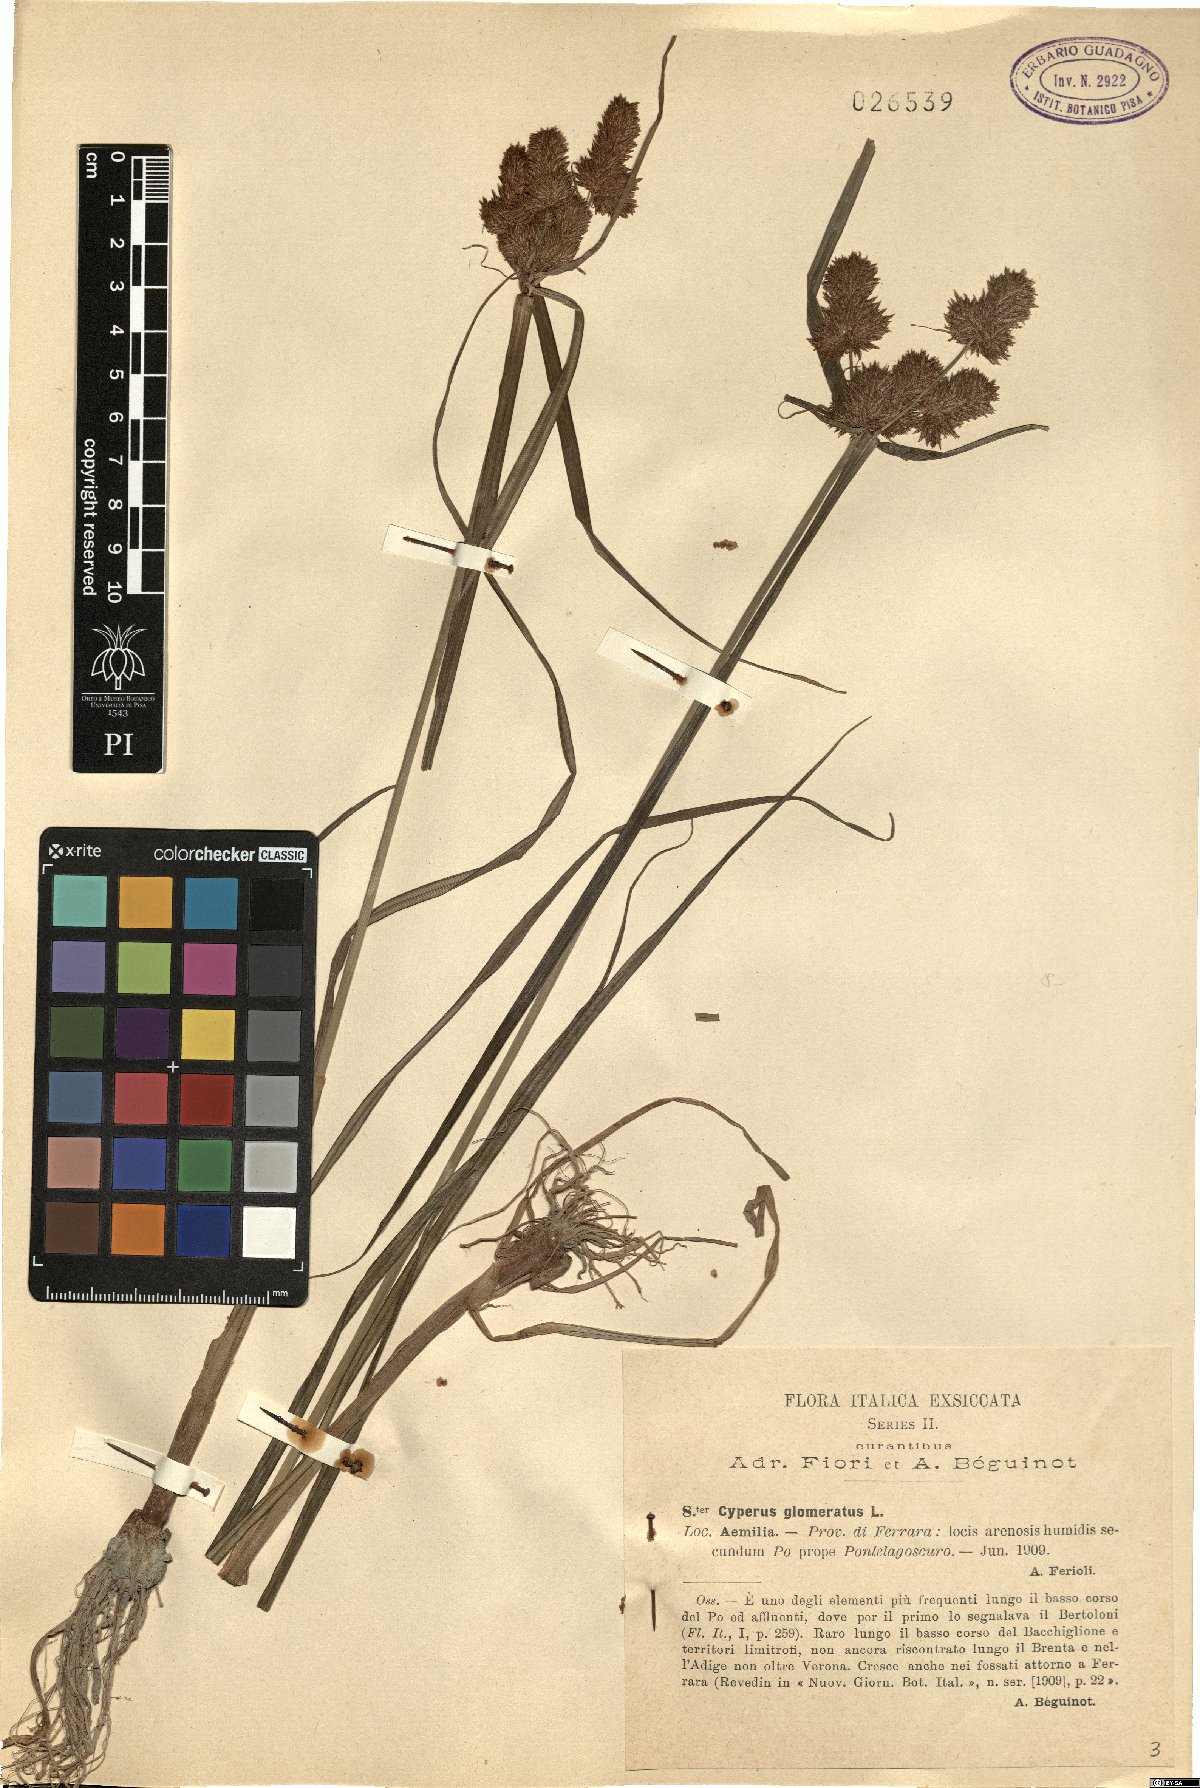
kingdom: Plantae
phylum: Tracheophyta
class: Liliopsida
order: Poales
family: Cyperaceae
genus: Cyperus
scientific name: Cyperus glomeratus
